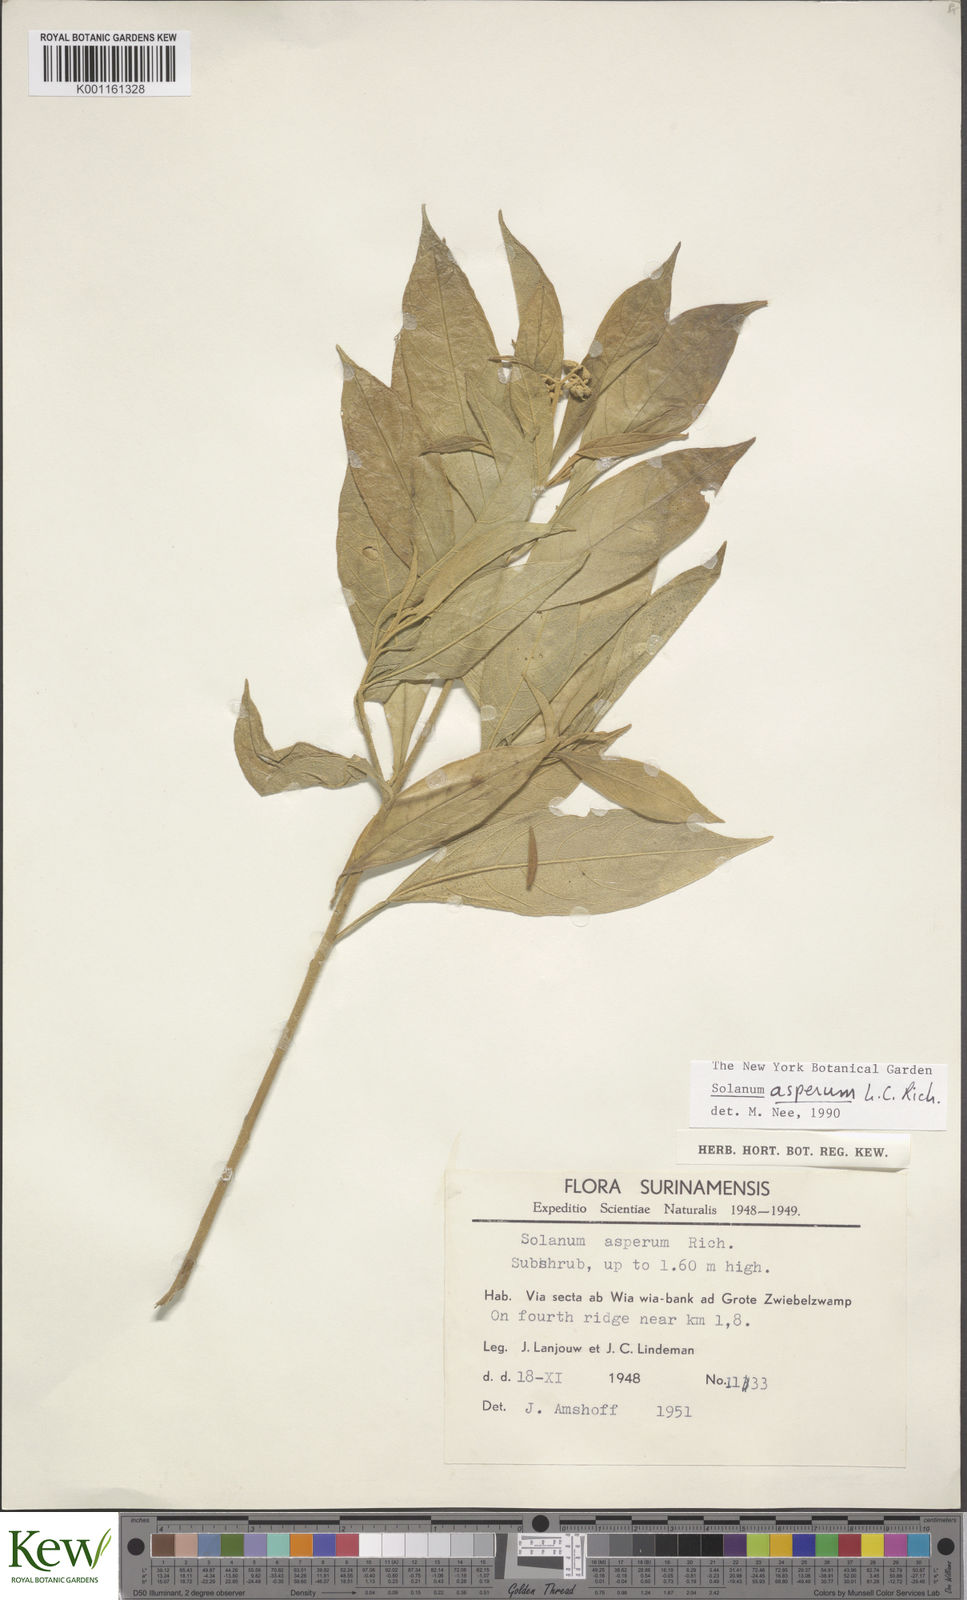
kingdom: Plantae
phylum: Tracheophyta
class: Magnoliopsida
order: Solanales
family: Solanaceae
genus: Solanum
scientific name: Solanum asperum
